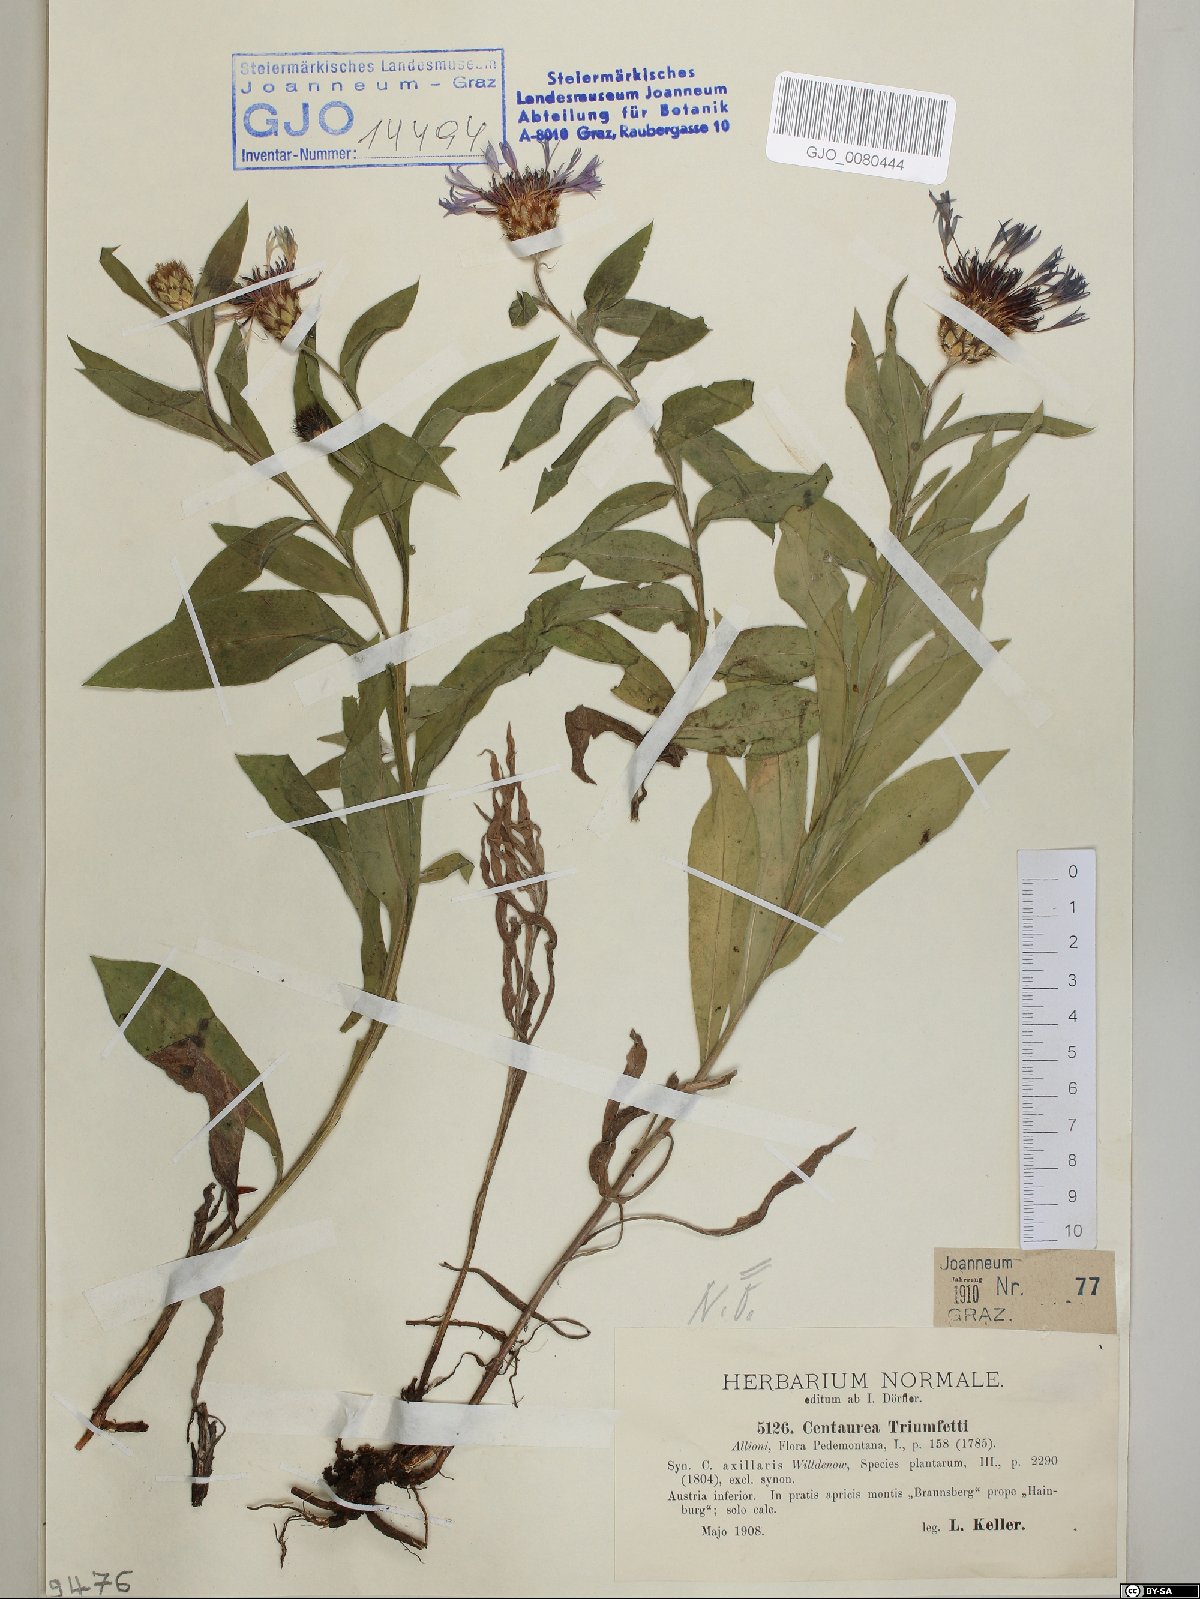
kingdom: Plantae
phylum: Tracheophyta
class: Magnoliopsida
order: Asterales
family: Asteraceae
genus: Centaurea
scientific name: Centaurea triumfettii
